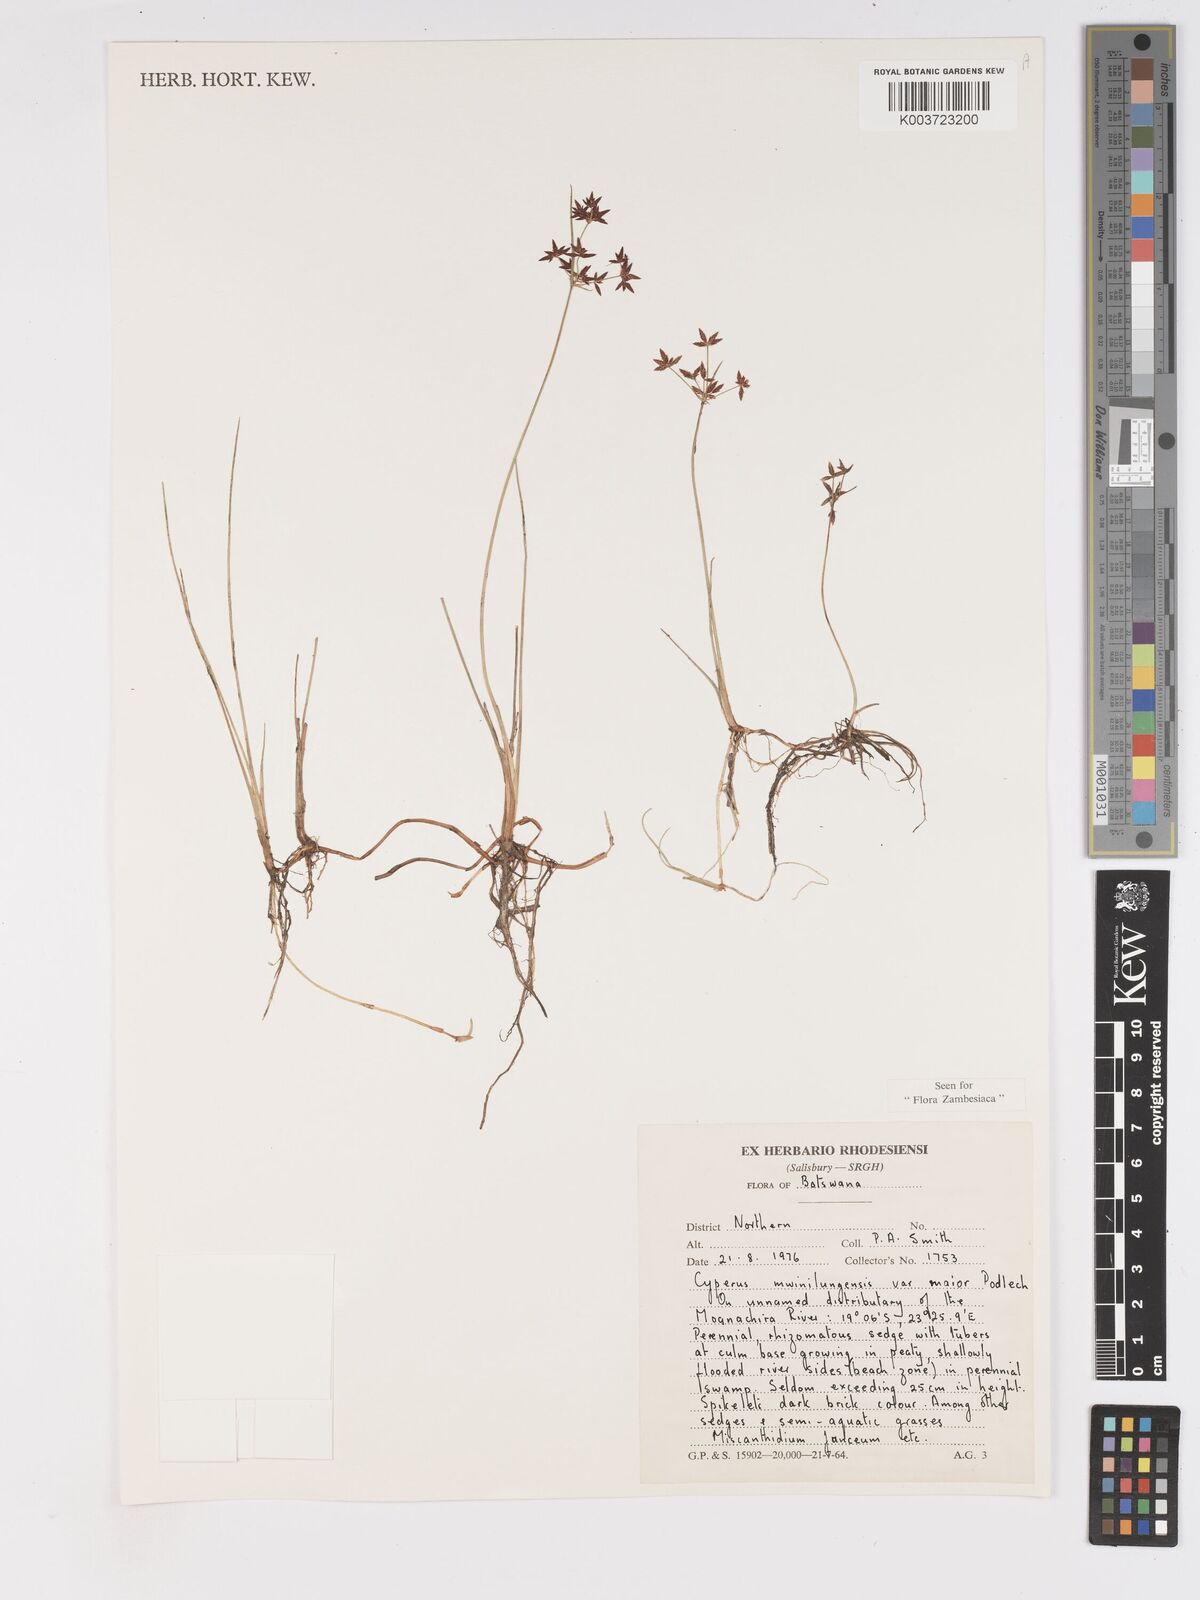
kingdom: Plantae
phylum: Tracheophyta
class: Liliopsida
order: Poales
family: Cyperaceae
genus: Cyperus
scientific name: Cyperus mwinilungensis
